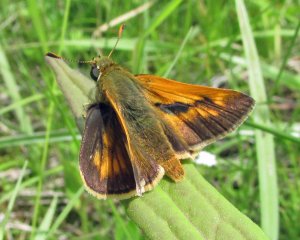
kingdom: Animalia
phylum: Arthropoda
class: Insecta
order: Lepidoptera
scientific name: Lepidoptera
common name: Butterflies
